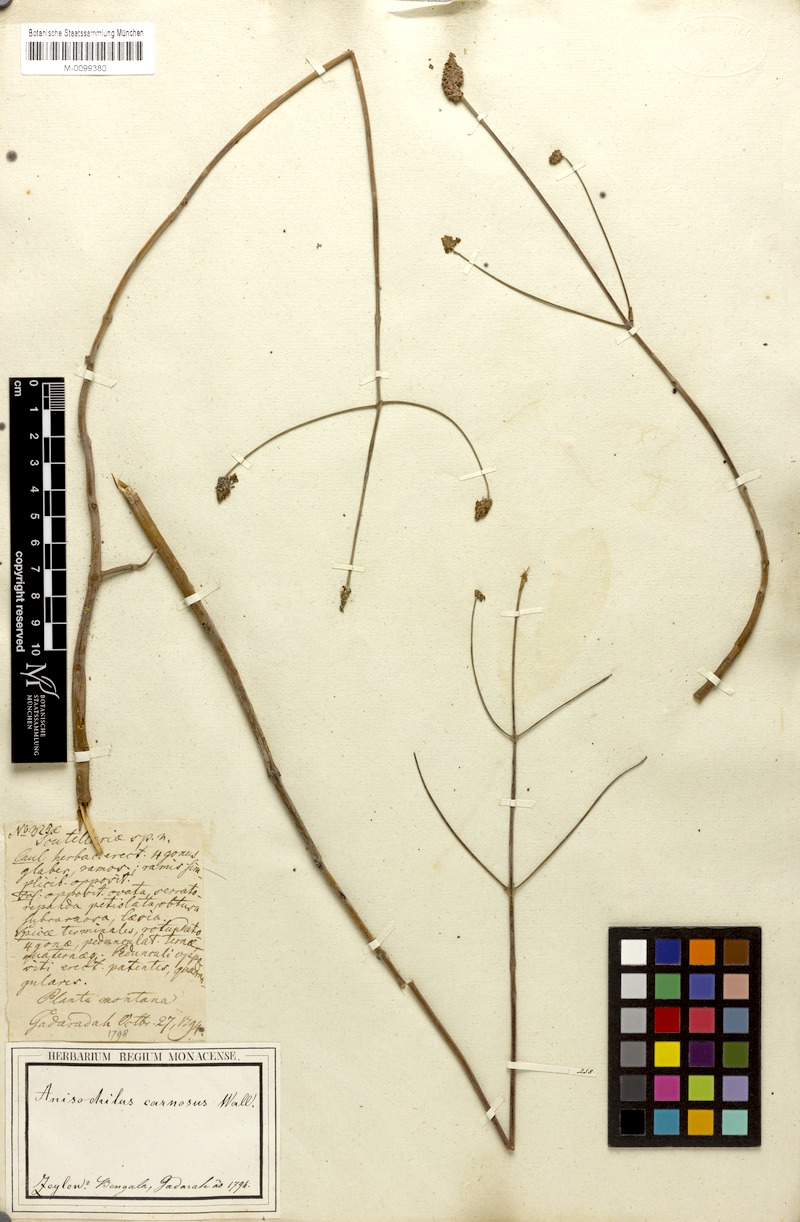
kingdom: Plantae
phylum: Tracheophyta
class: Magnoliopsida
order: Lamiales
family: Lamiaceae
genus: Coleus
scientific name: Coleus strobilifer
